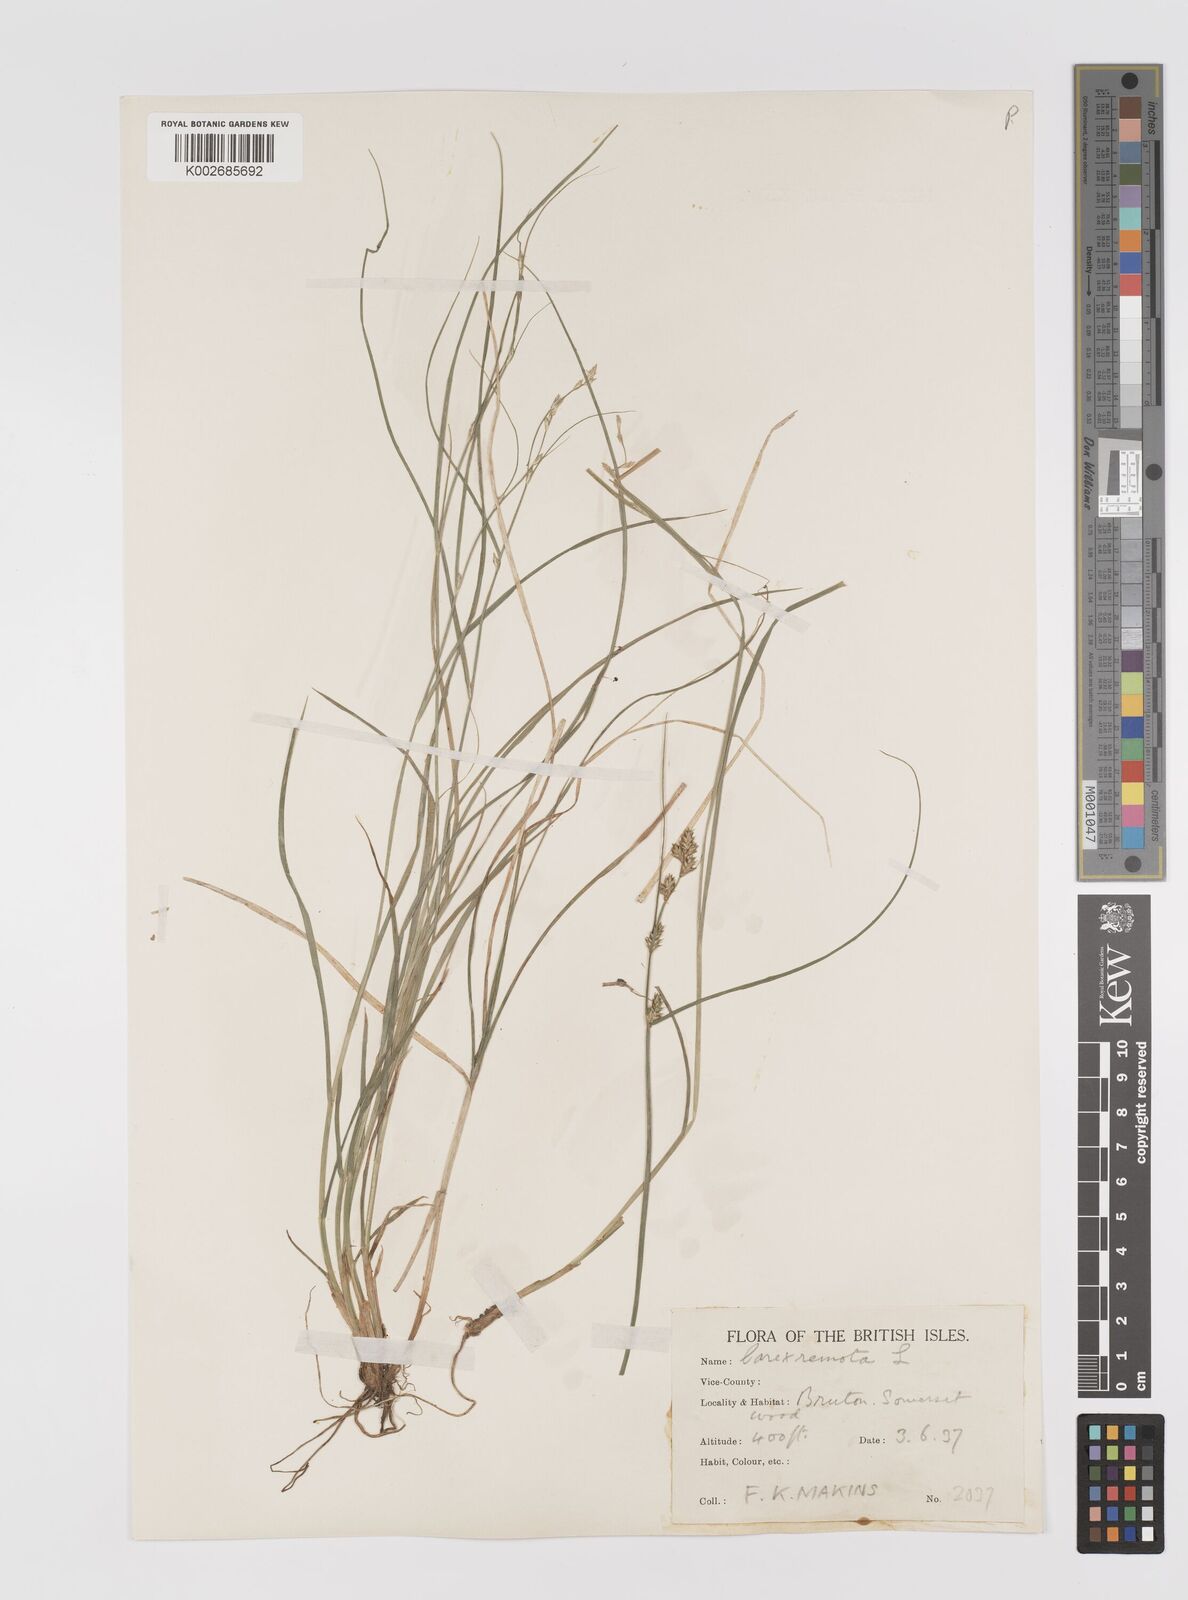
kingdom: Plantae
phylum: Tracheophyta
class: Liliopsida
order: Poales
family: Cyperaceae
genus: Carex
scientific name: Carex remota
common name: Remote sedge
